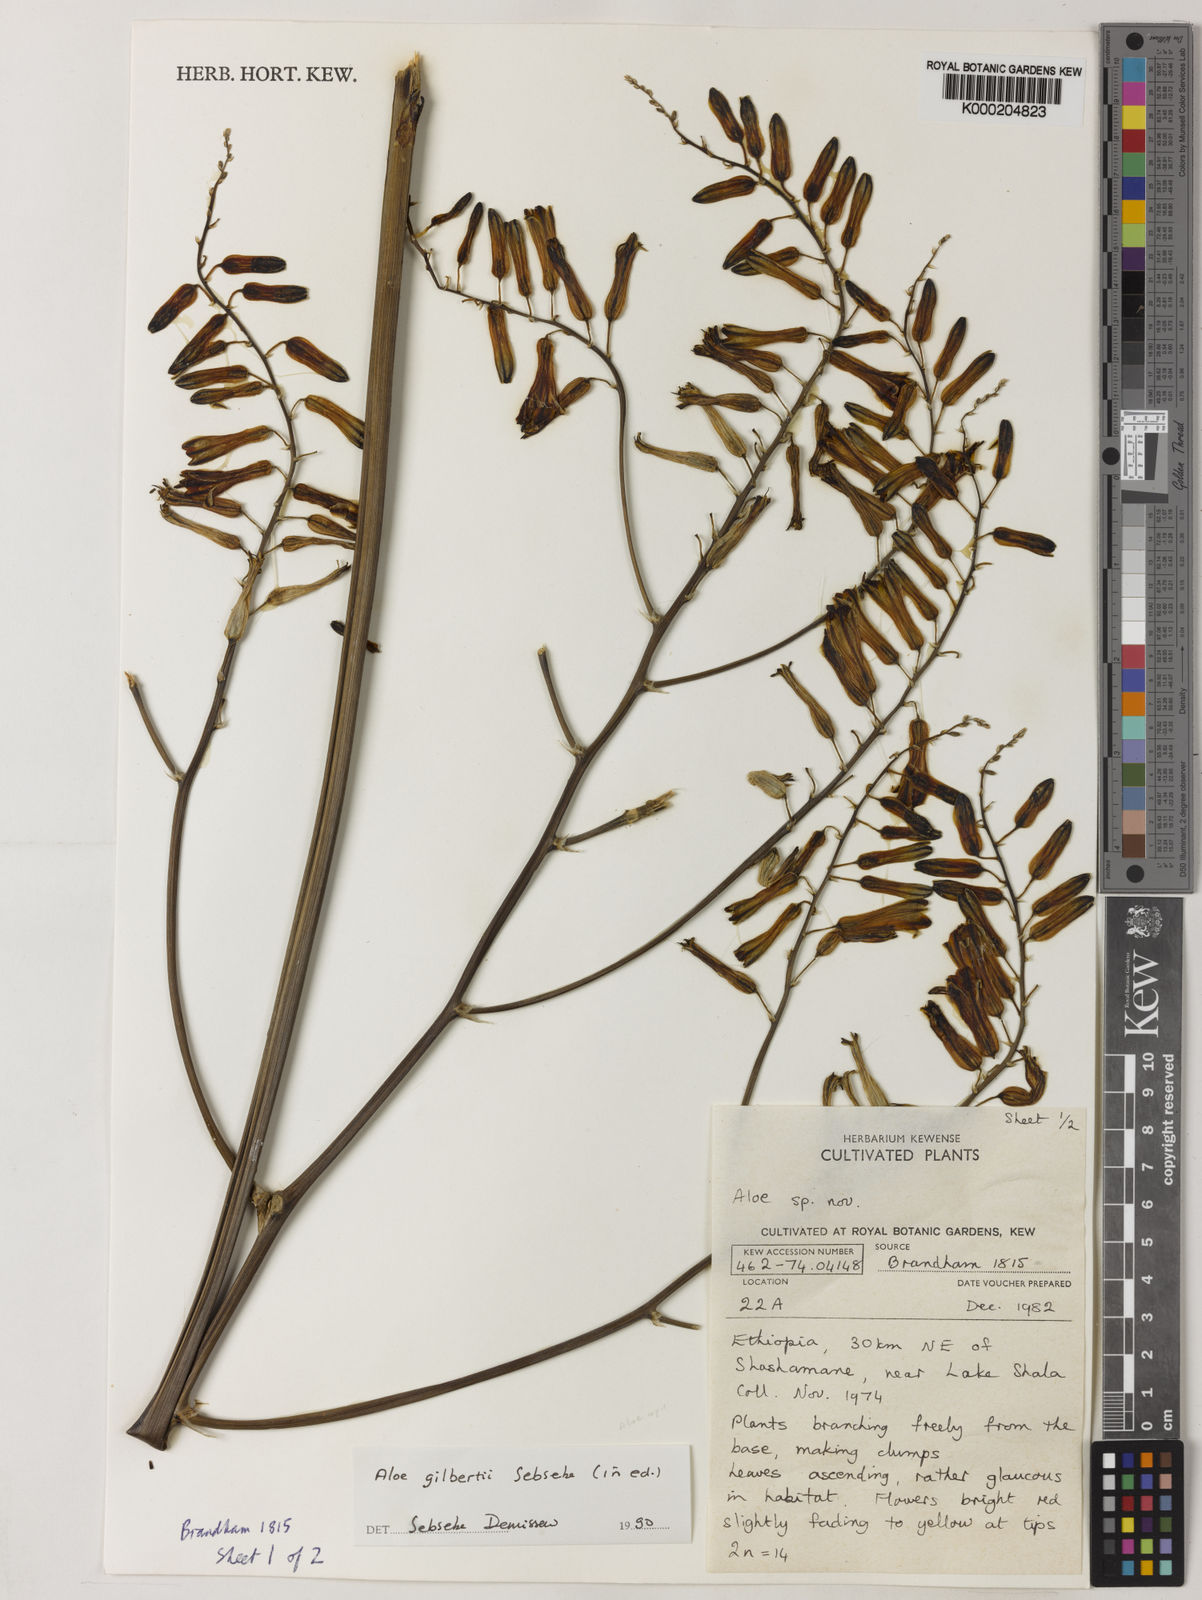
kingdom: Plantae
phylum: Tracheophyta
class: Liliopsida
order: Asparagales
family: Asphodelaceae
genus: Aloe
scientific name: Aloe gilbertii
